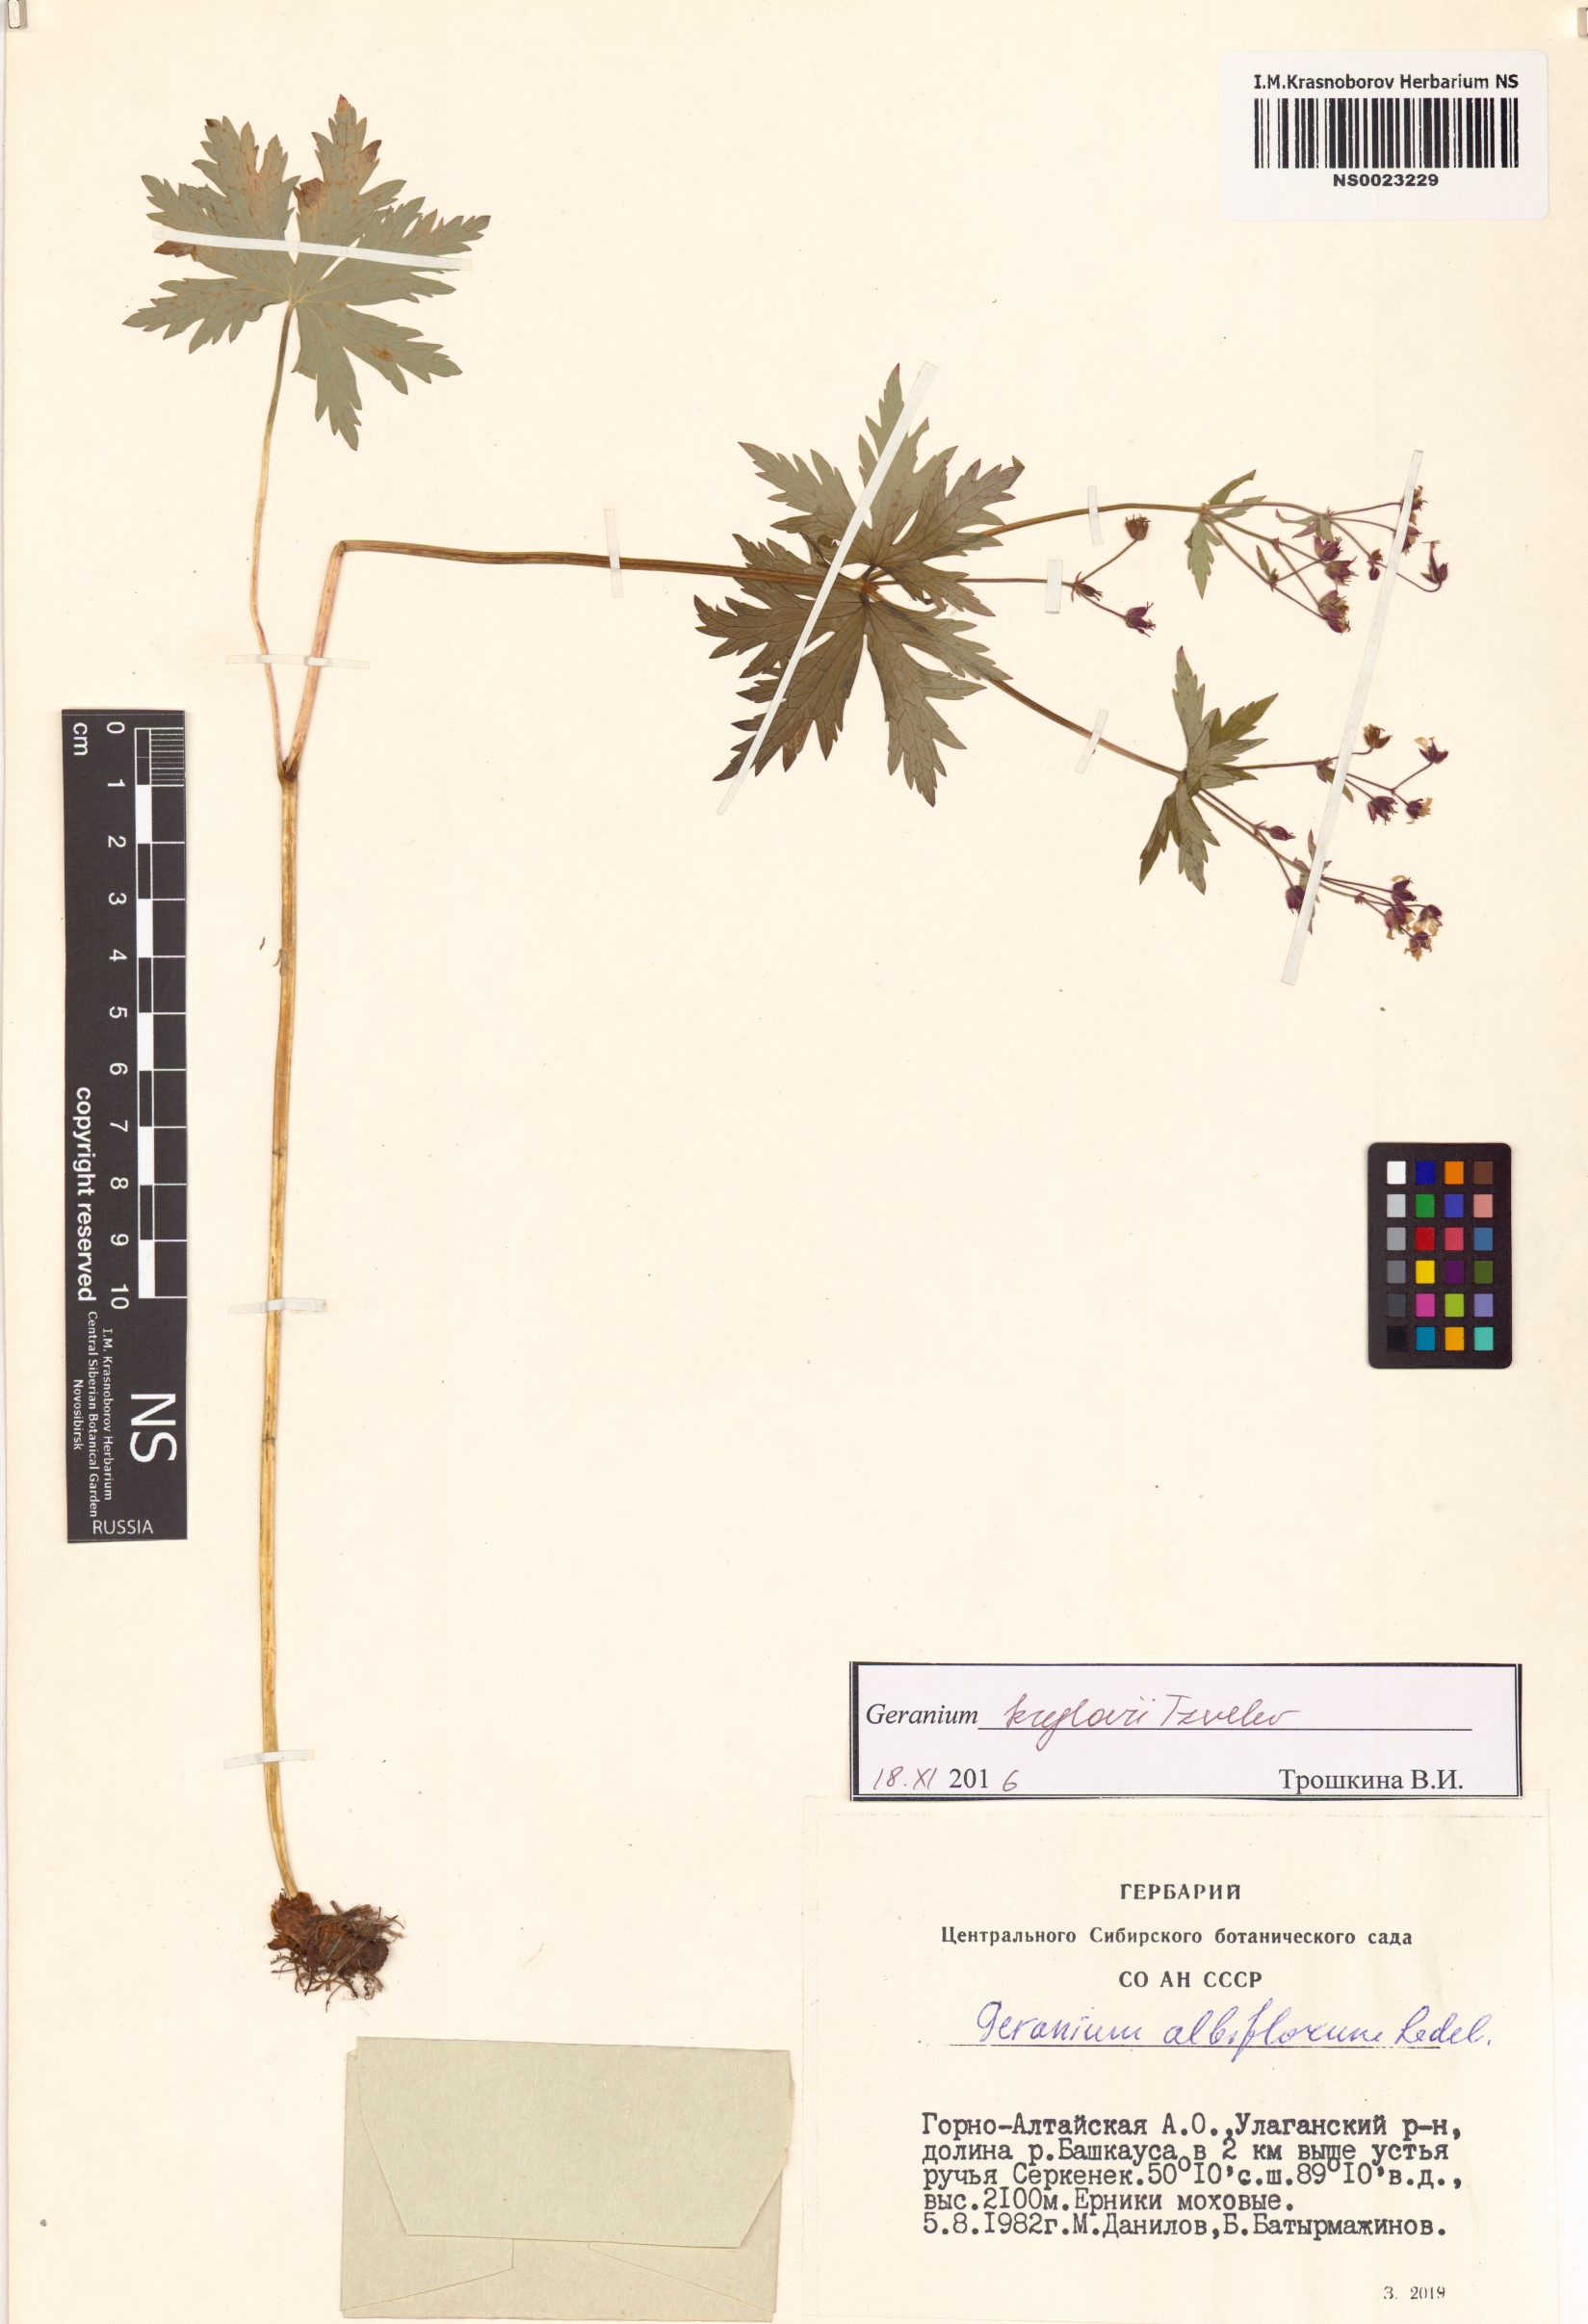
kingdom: Plantae
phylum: Tracheophyta
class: Magnoliopsida
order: Geraniales
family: Geraniaceae
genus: Geranium
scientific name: Geranium sylvaticum
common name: Wood crane's-bill
